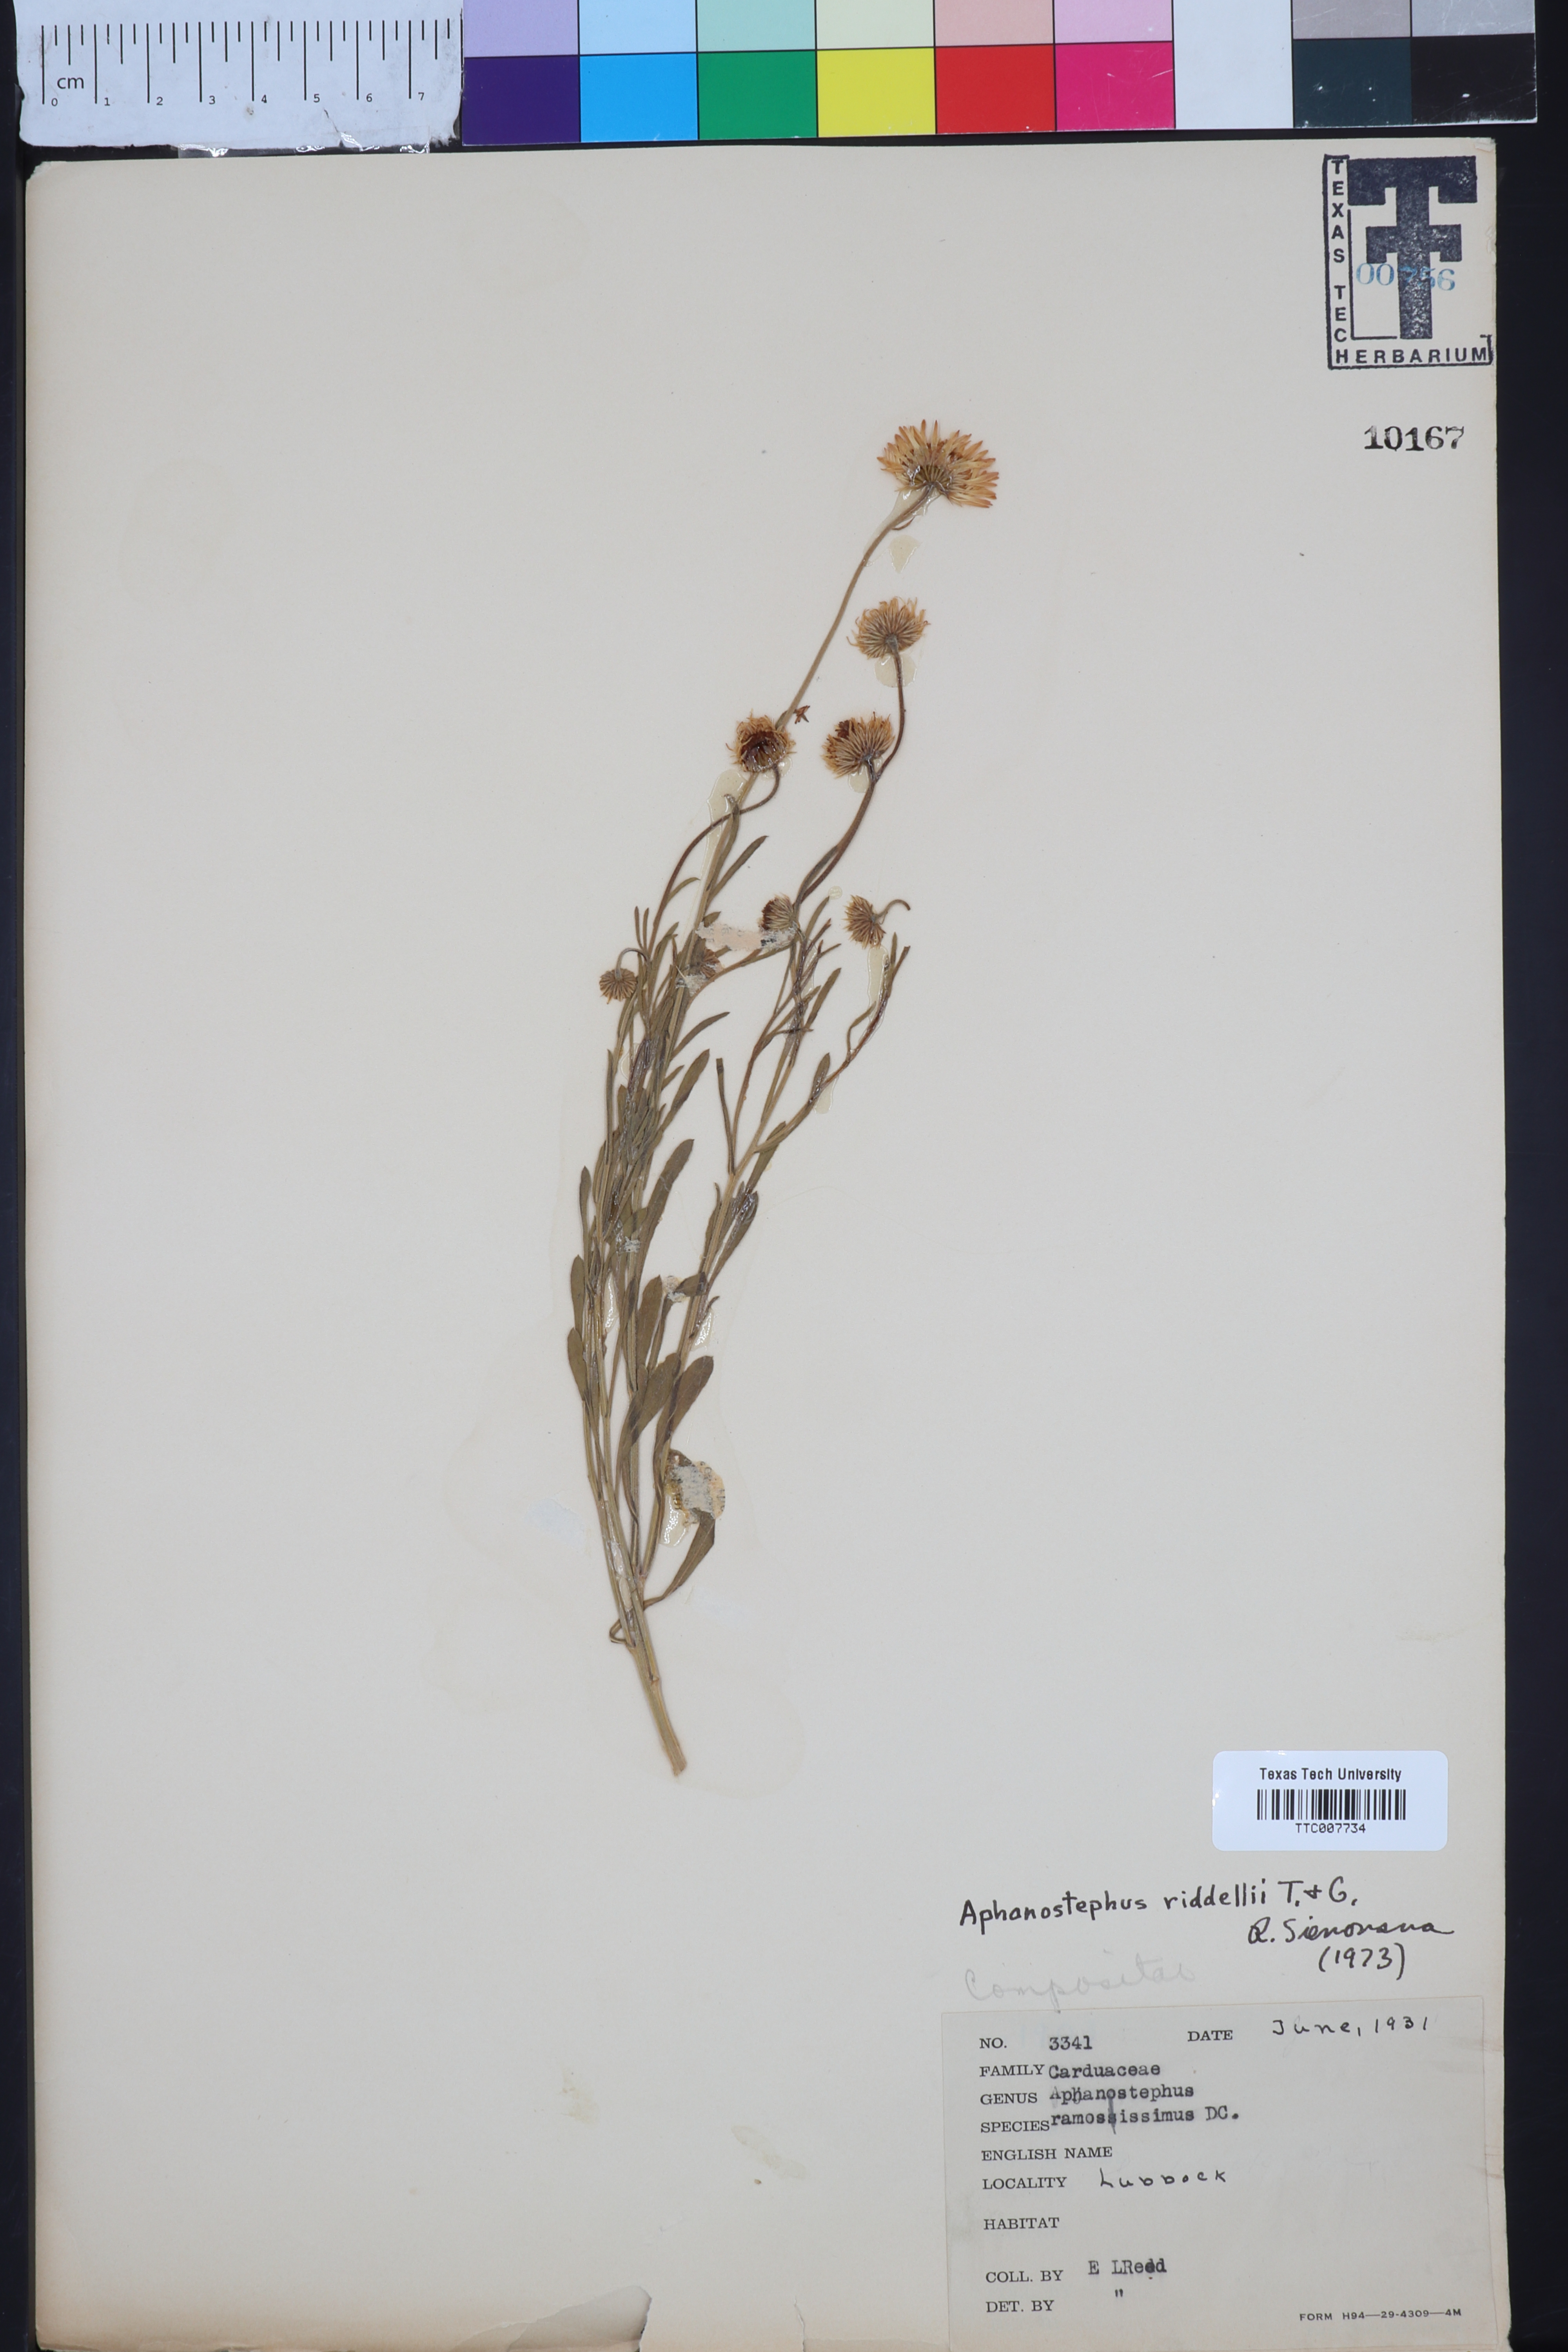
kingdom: Plantae
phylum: Tracheophyta
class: Magnoliopsida
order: Asterales
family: Asteraceae
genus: Aphanostephus
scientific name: Aphanostephus riddellii
